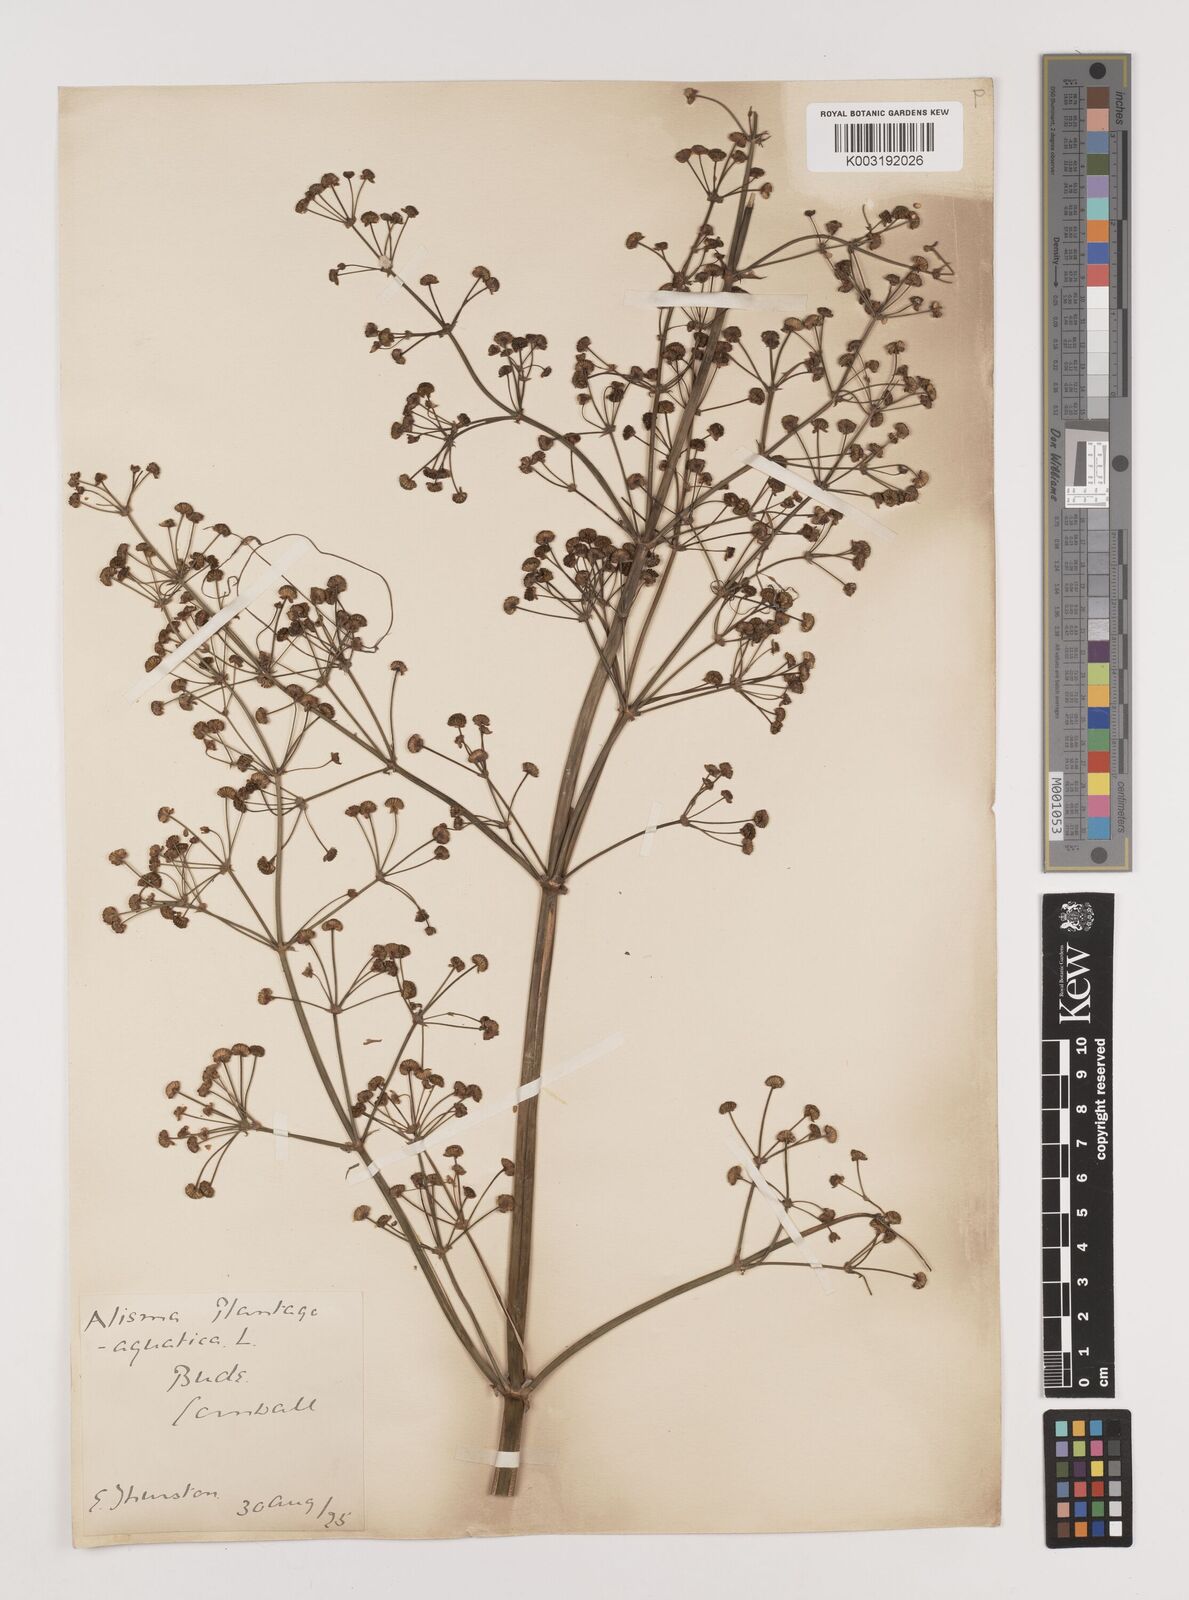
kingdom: Plantae
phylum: Tracheophyta
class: Liliopsida
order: Alismatales
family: Alismataceae
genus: Alisma
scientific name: Alisma plantago-aquatica
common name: Water-plantain
